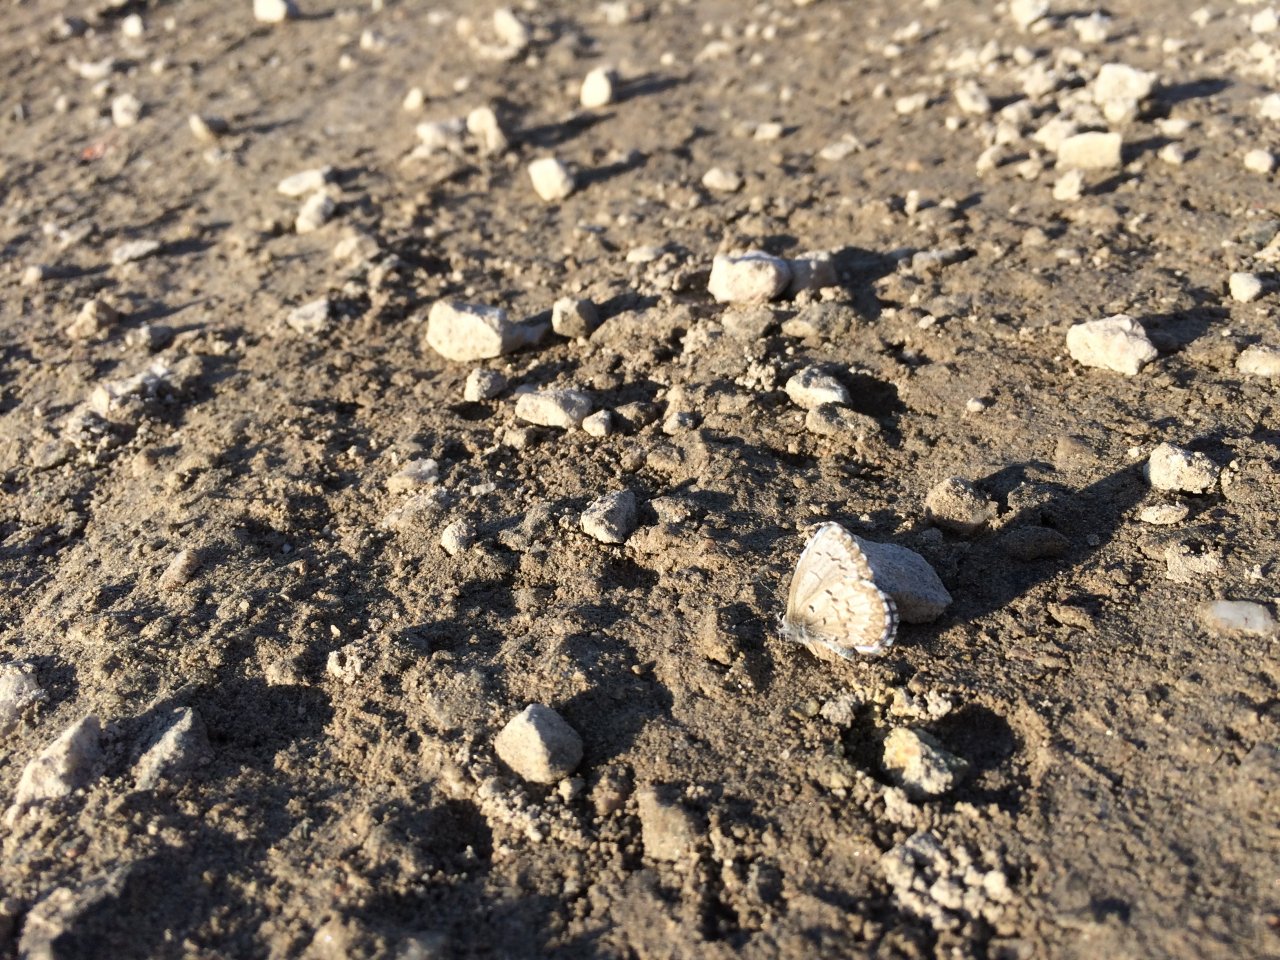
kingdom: Animalia
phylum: Arthropoda
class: Insecta
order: Lepidoptera
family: Lycaenidae
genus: Celastrina
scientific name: Celastrina lucia
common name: Northern Spring Azure
